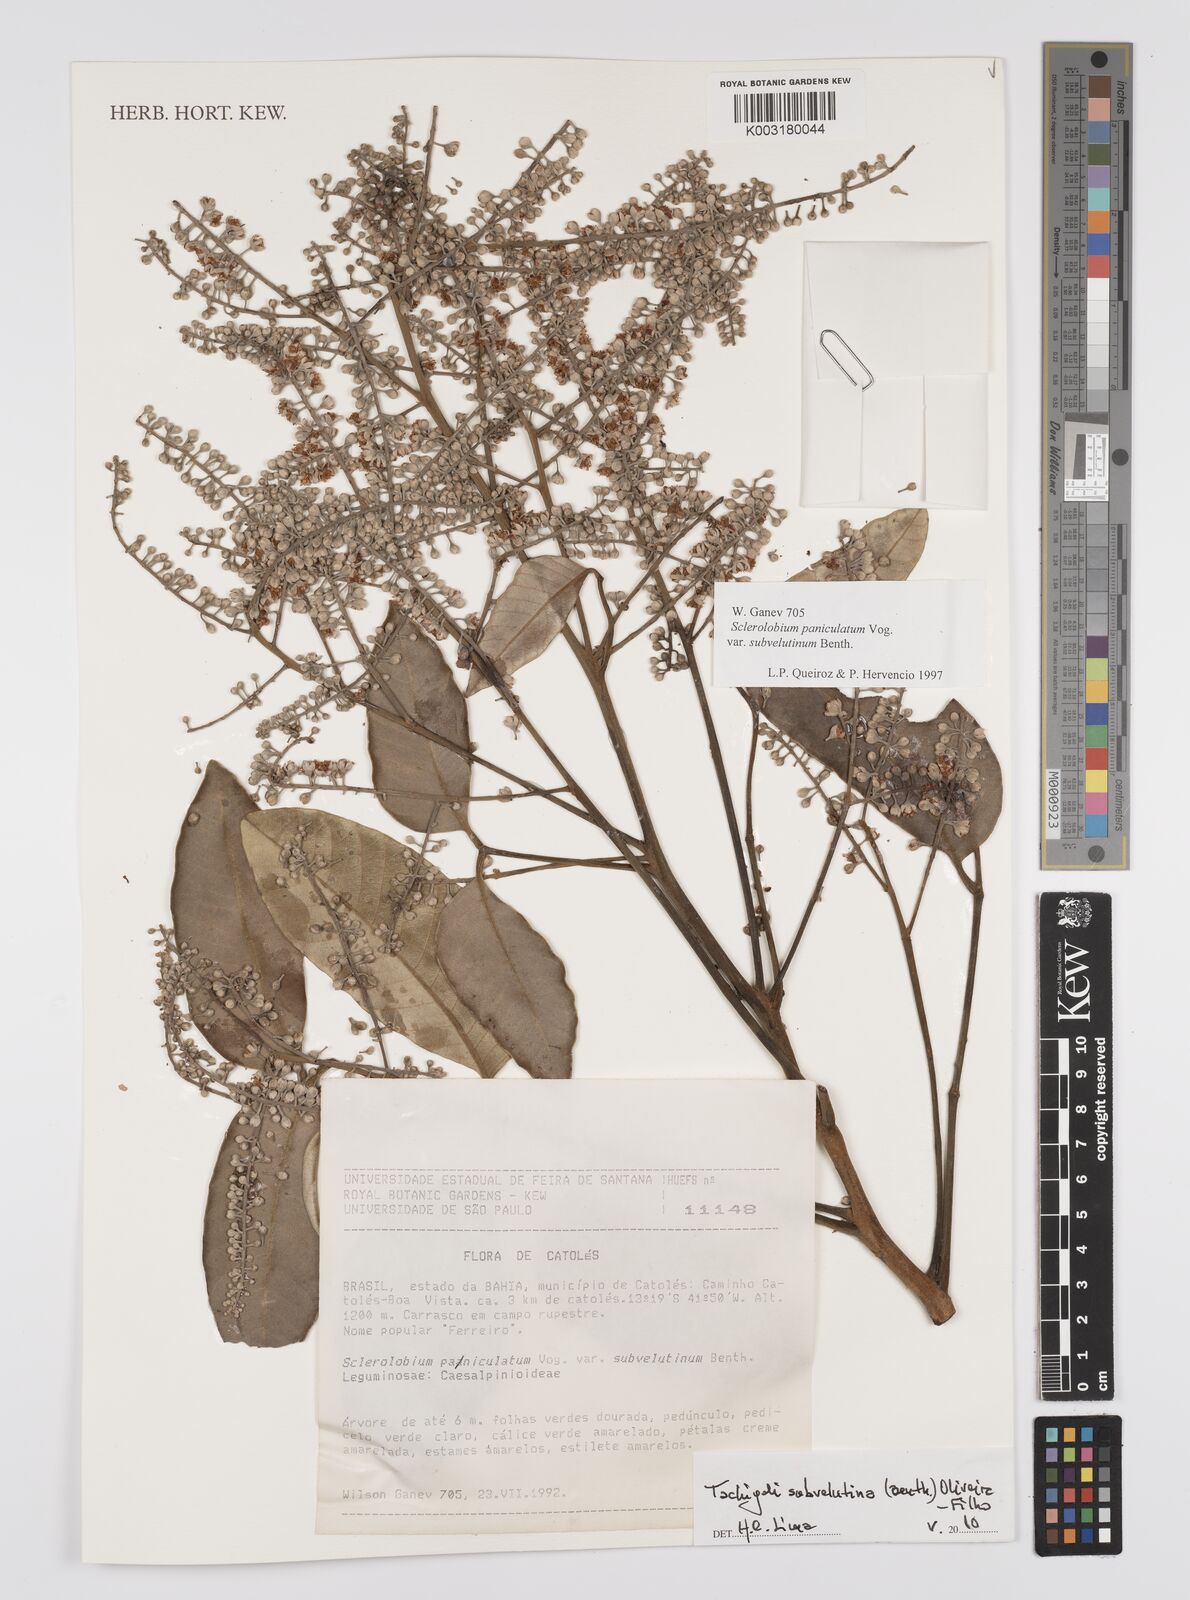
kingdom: Plantae
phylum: Tracheophyta
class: Magnoliopsida
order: Fabales
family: Fabaceae
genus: Tachigali
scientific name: Tachigali subvelutina
